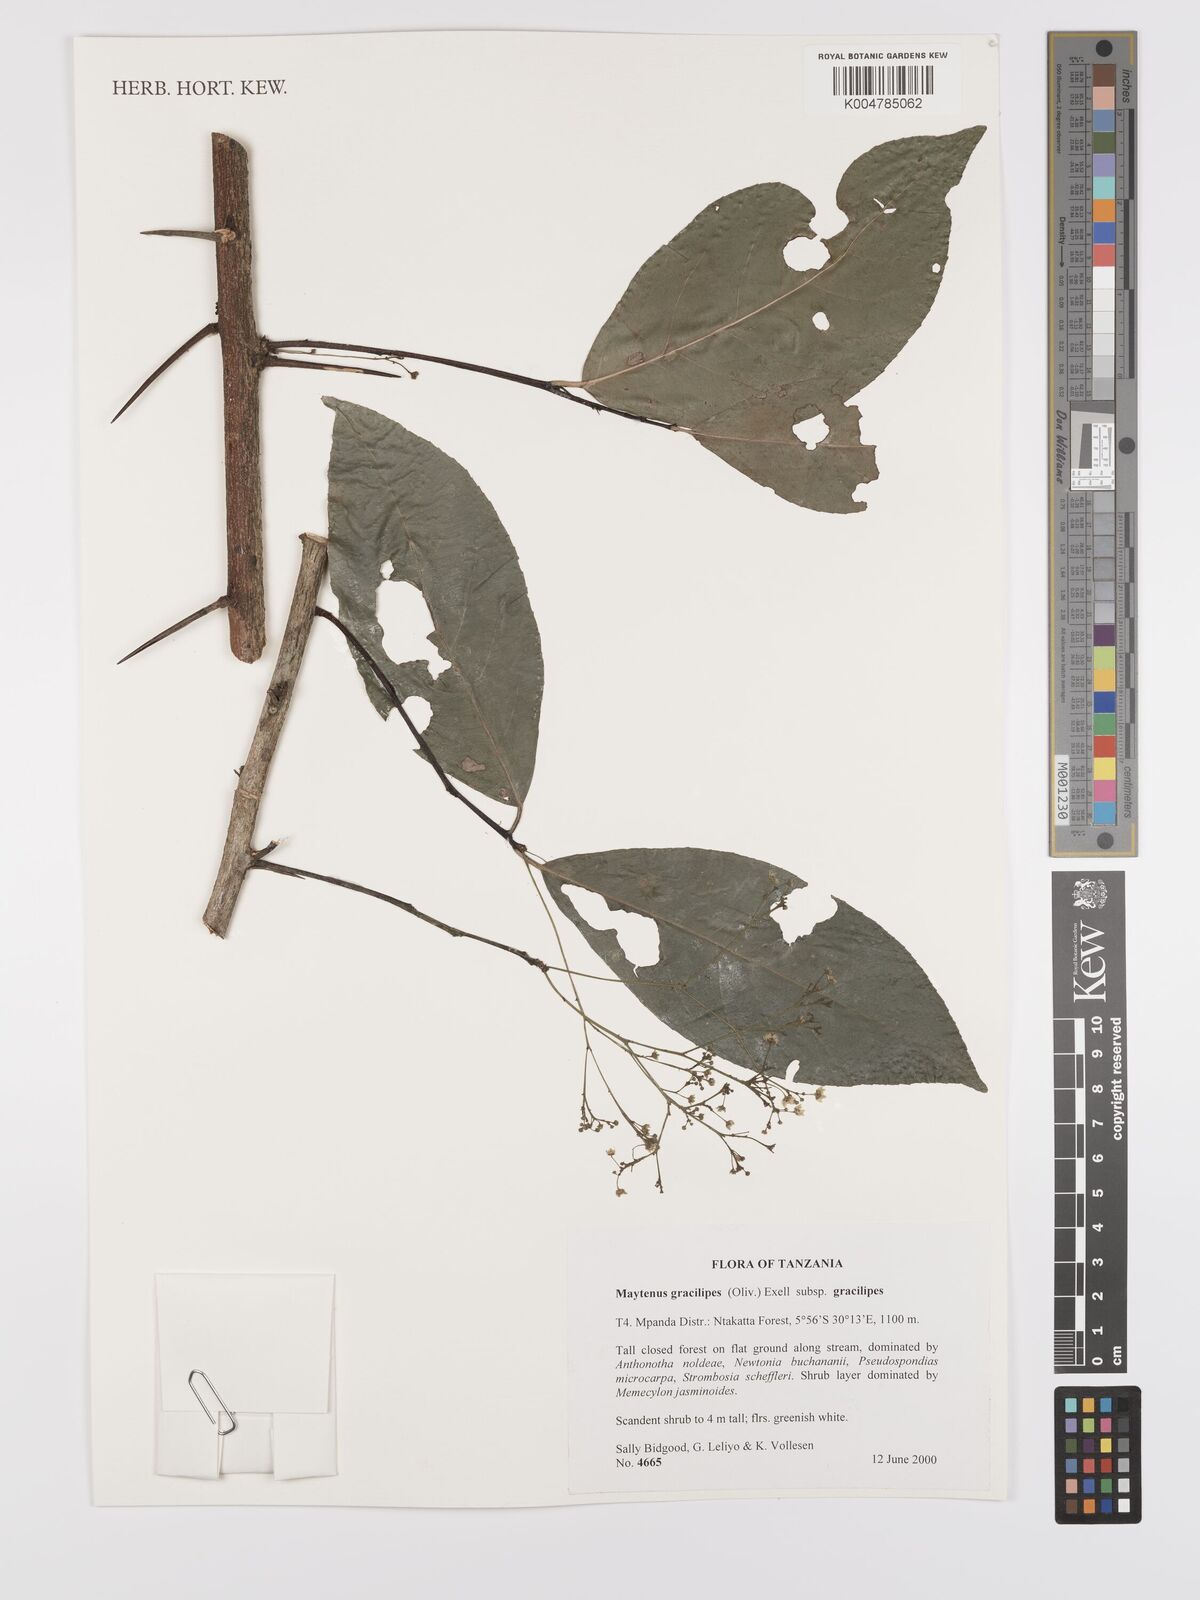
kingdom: Plantae
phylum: Tracheophyta
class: Magnoliopsida
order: Celastrales
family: Celastraceae
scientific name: Celastraceae
